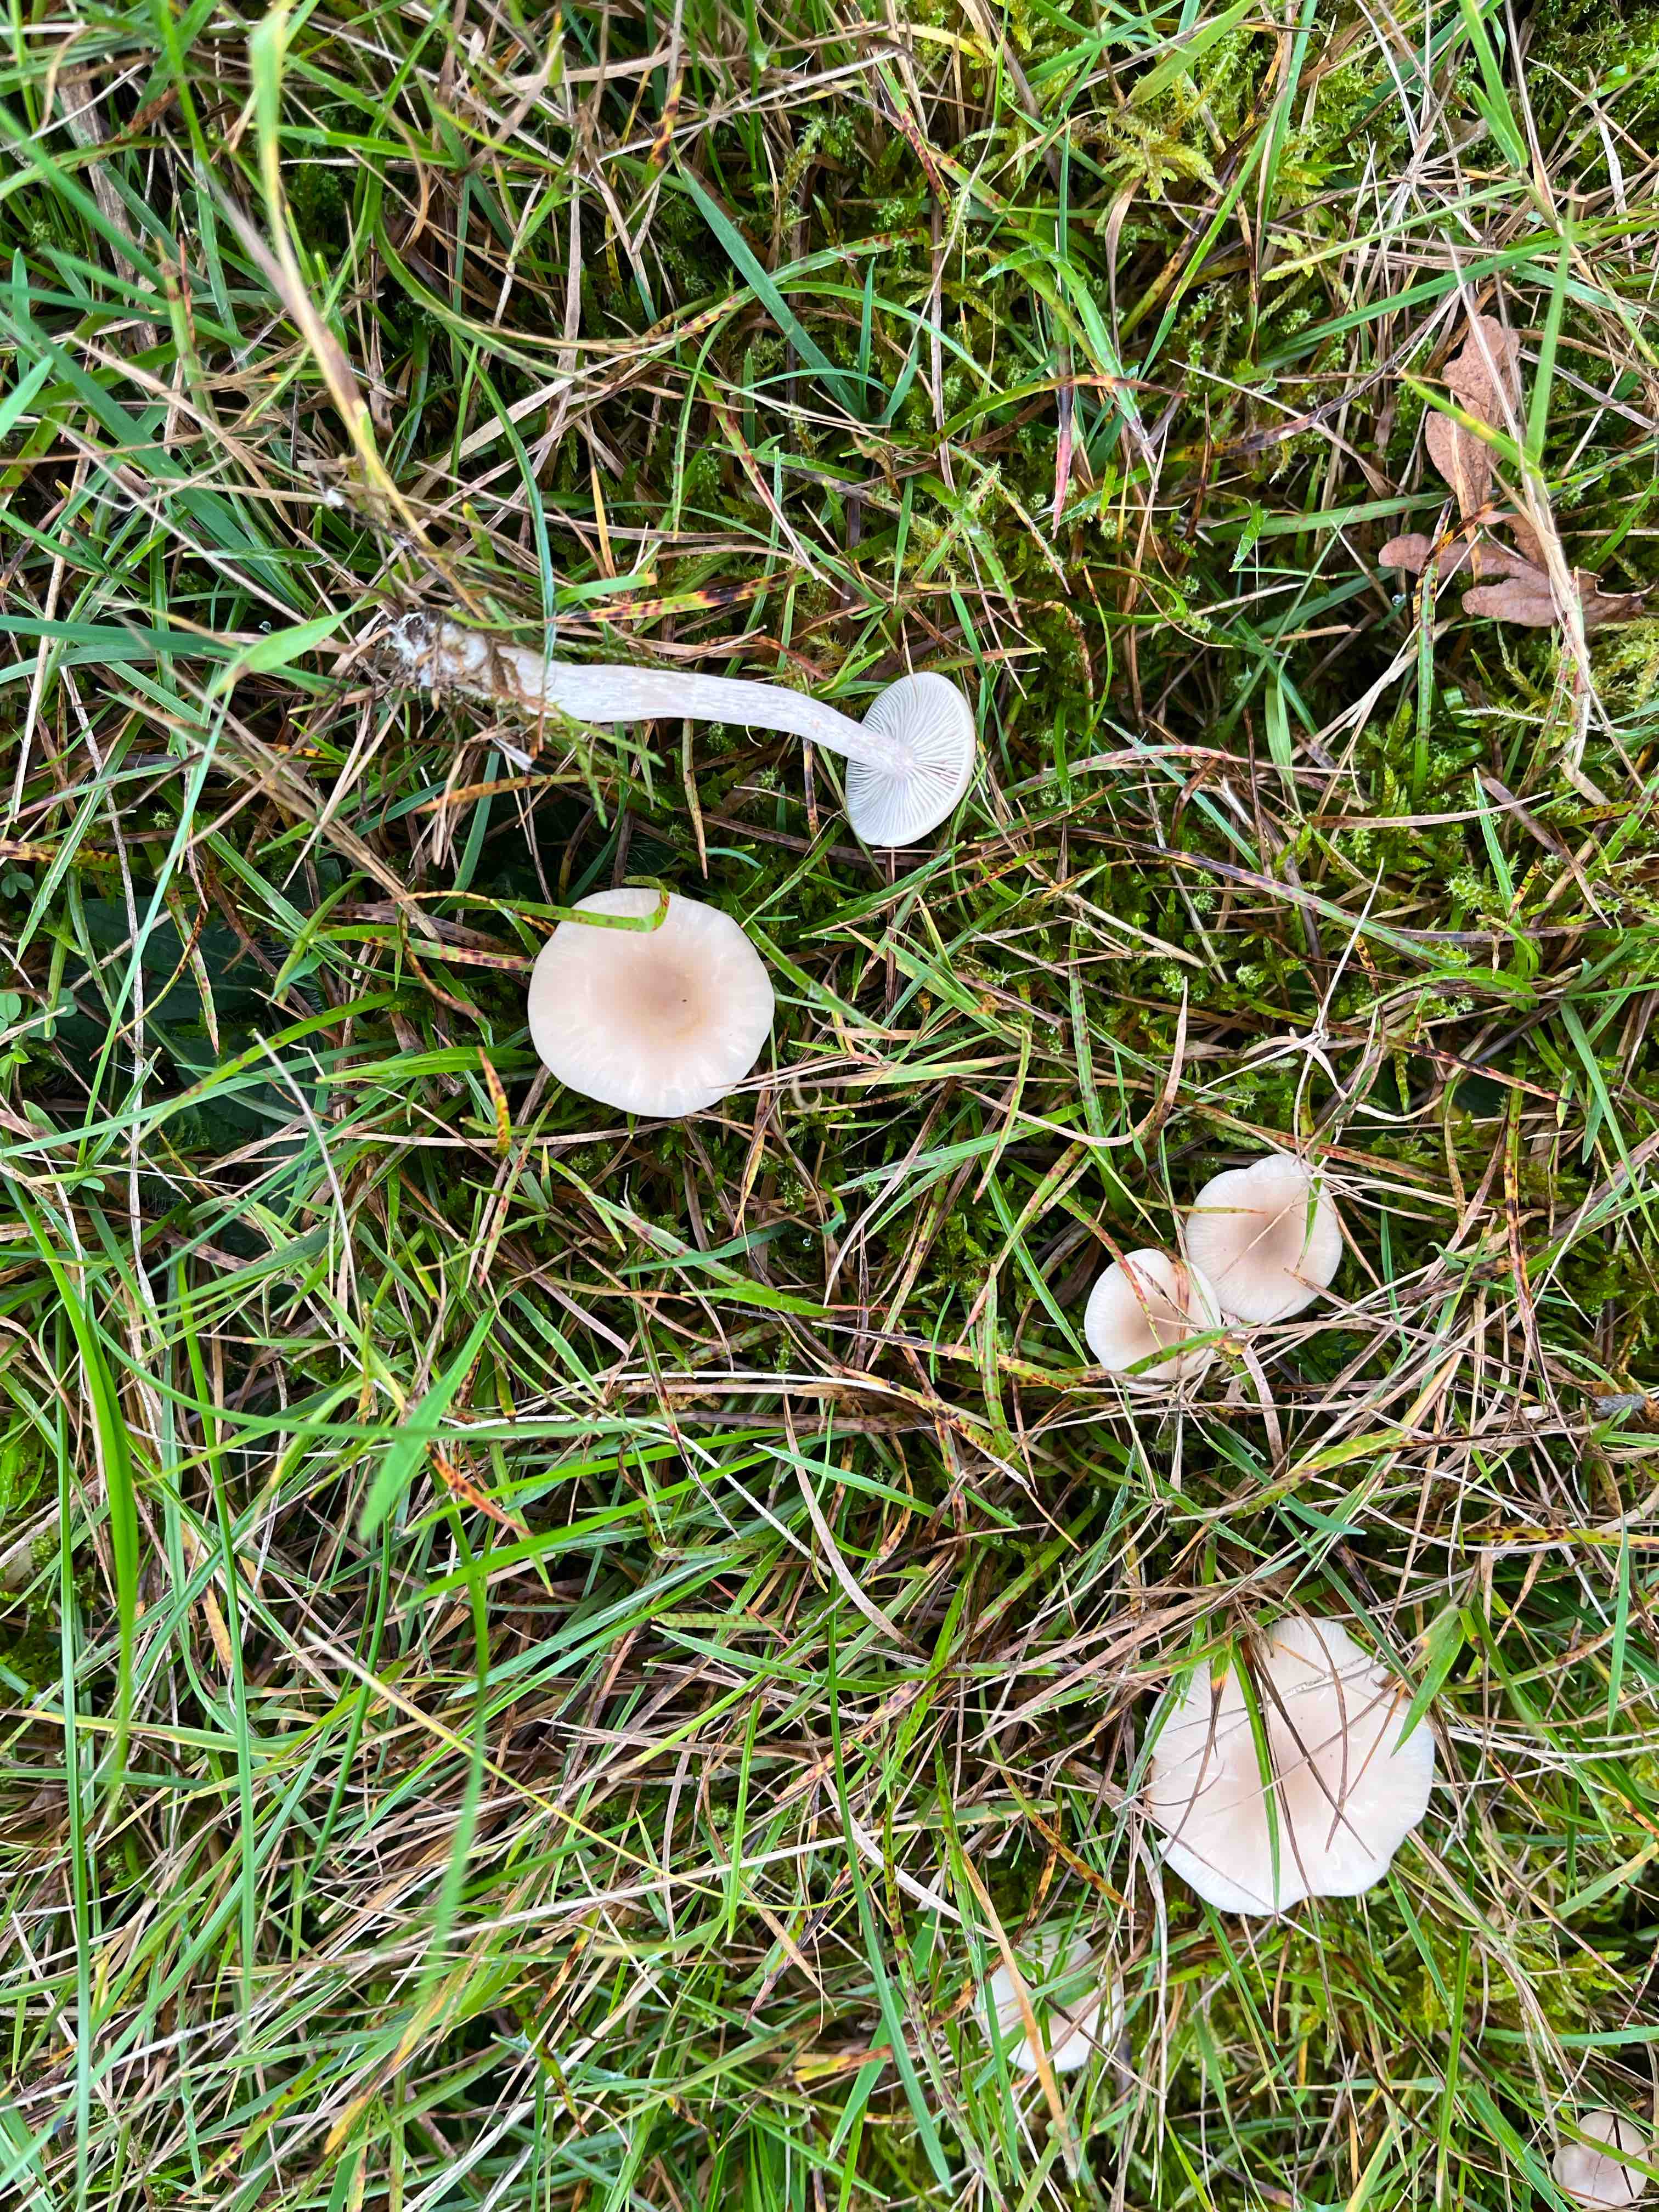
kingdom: Fungi
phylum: Basidiomycota
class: Agaricomycetes
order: Agaricales
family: Tricholomataceae
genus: Clitocybe
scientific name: Clitocybe fragrans
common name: vellugtende tragthat
